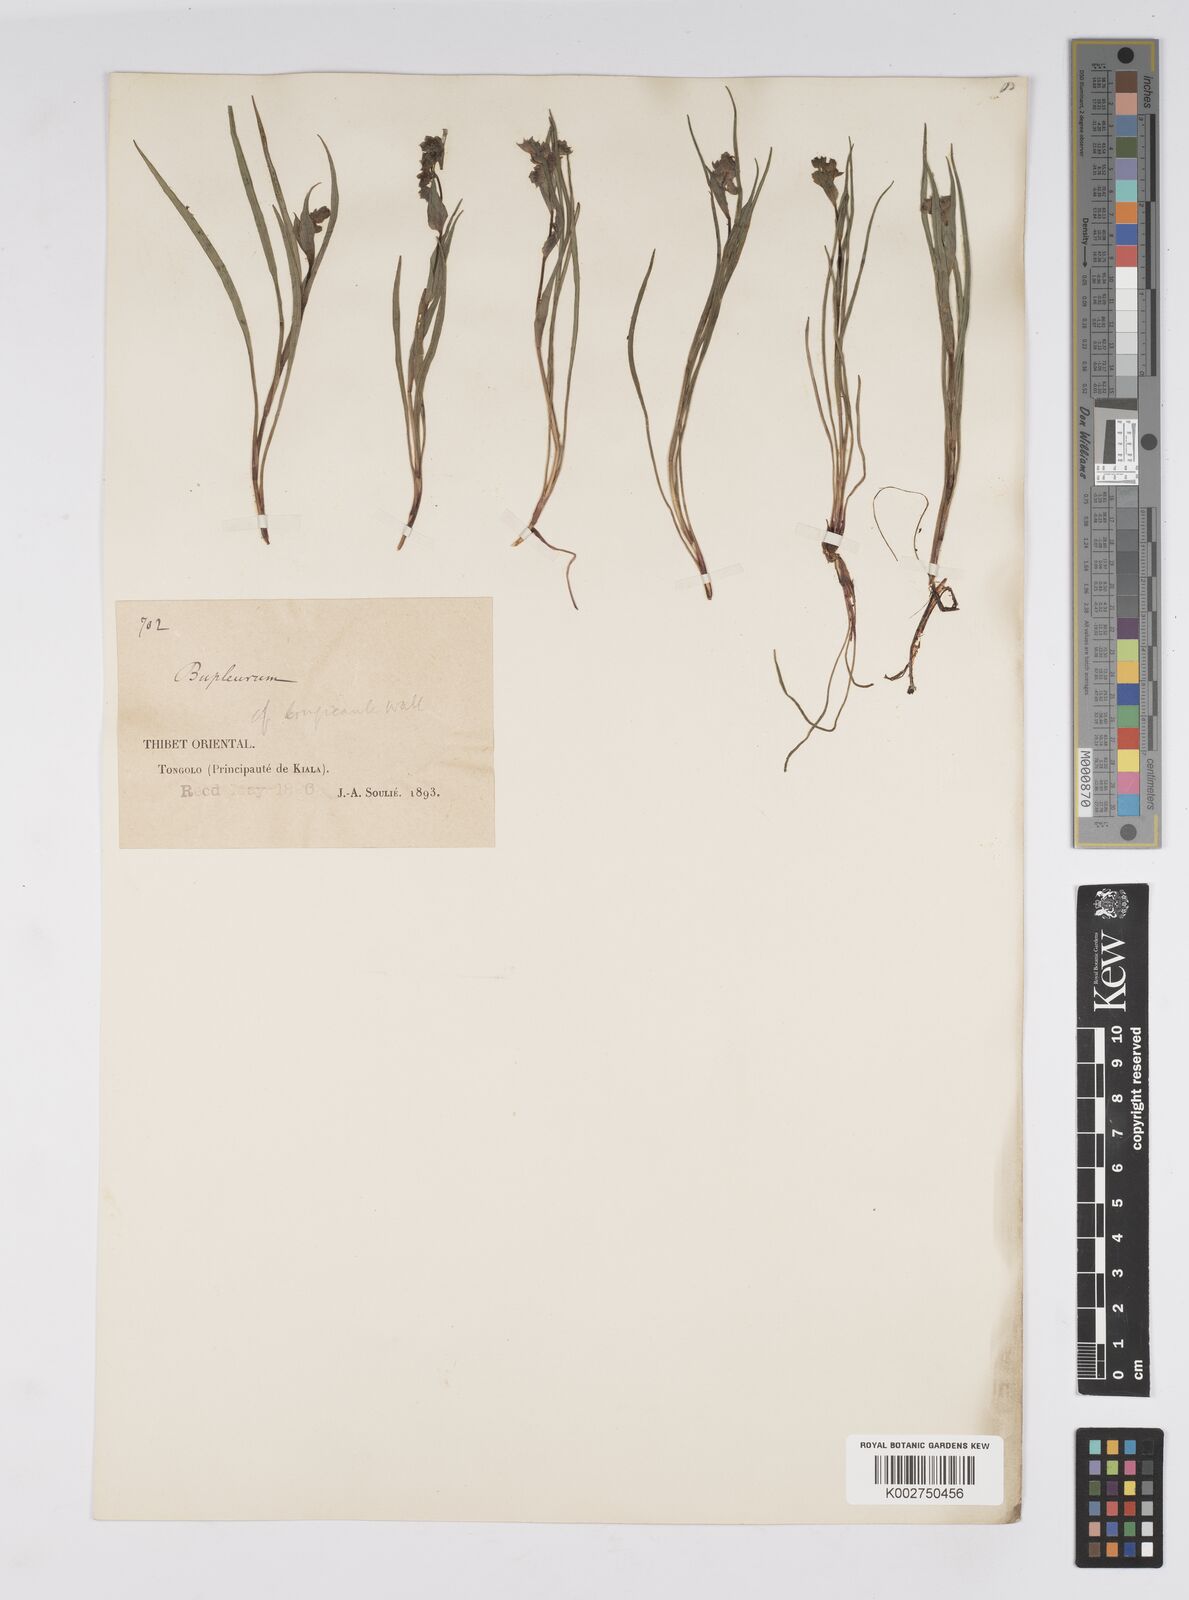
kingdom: Plantae
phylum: Tracheophyta
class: Magnoliopsida
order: Apiales
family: Apiaceae
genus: Bupleurum
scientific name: Bupleurum longicaule
